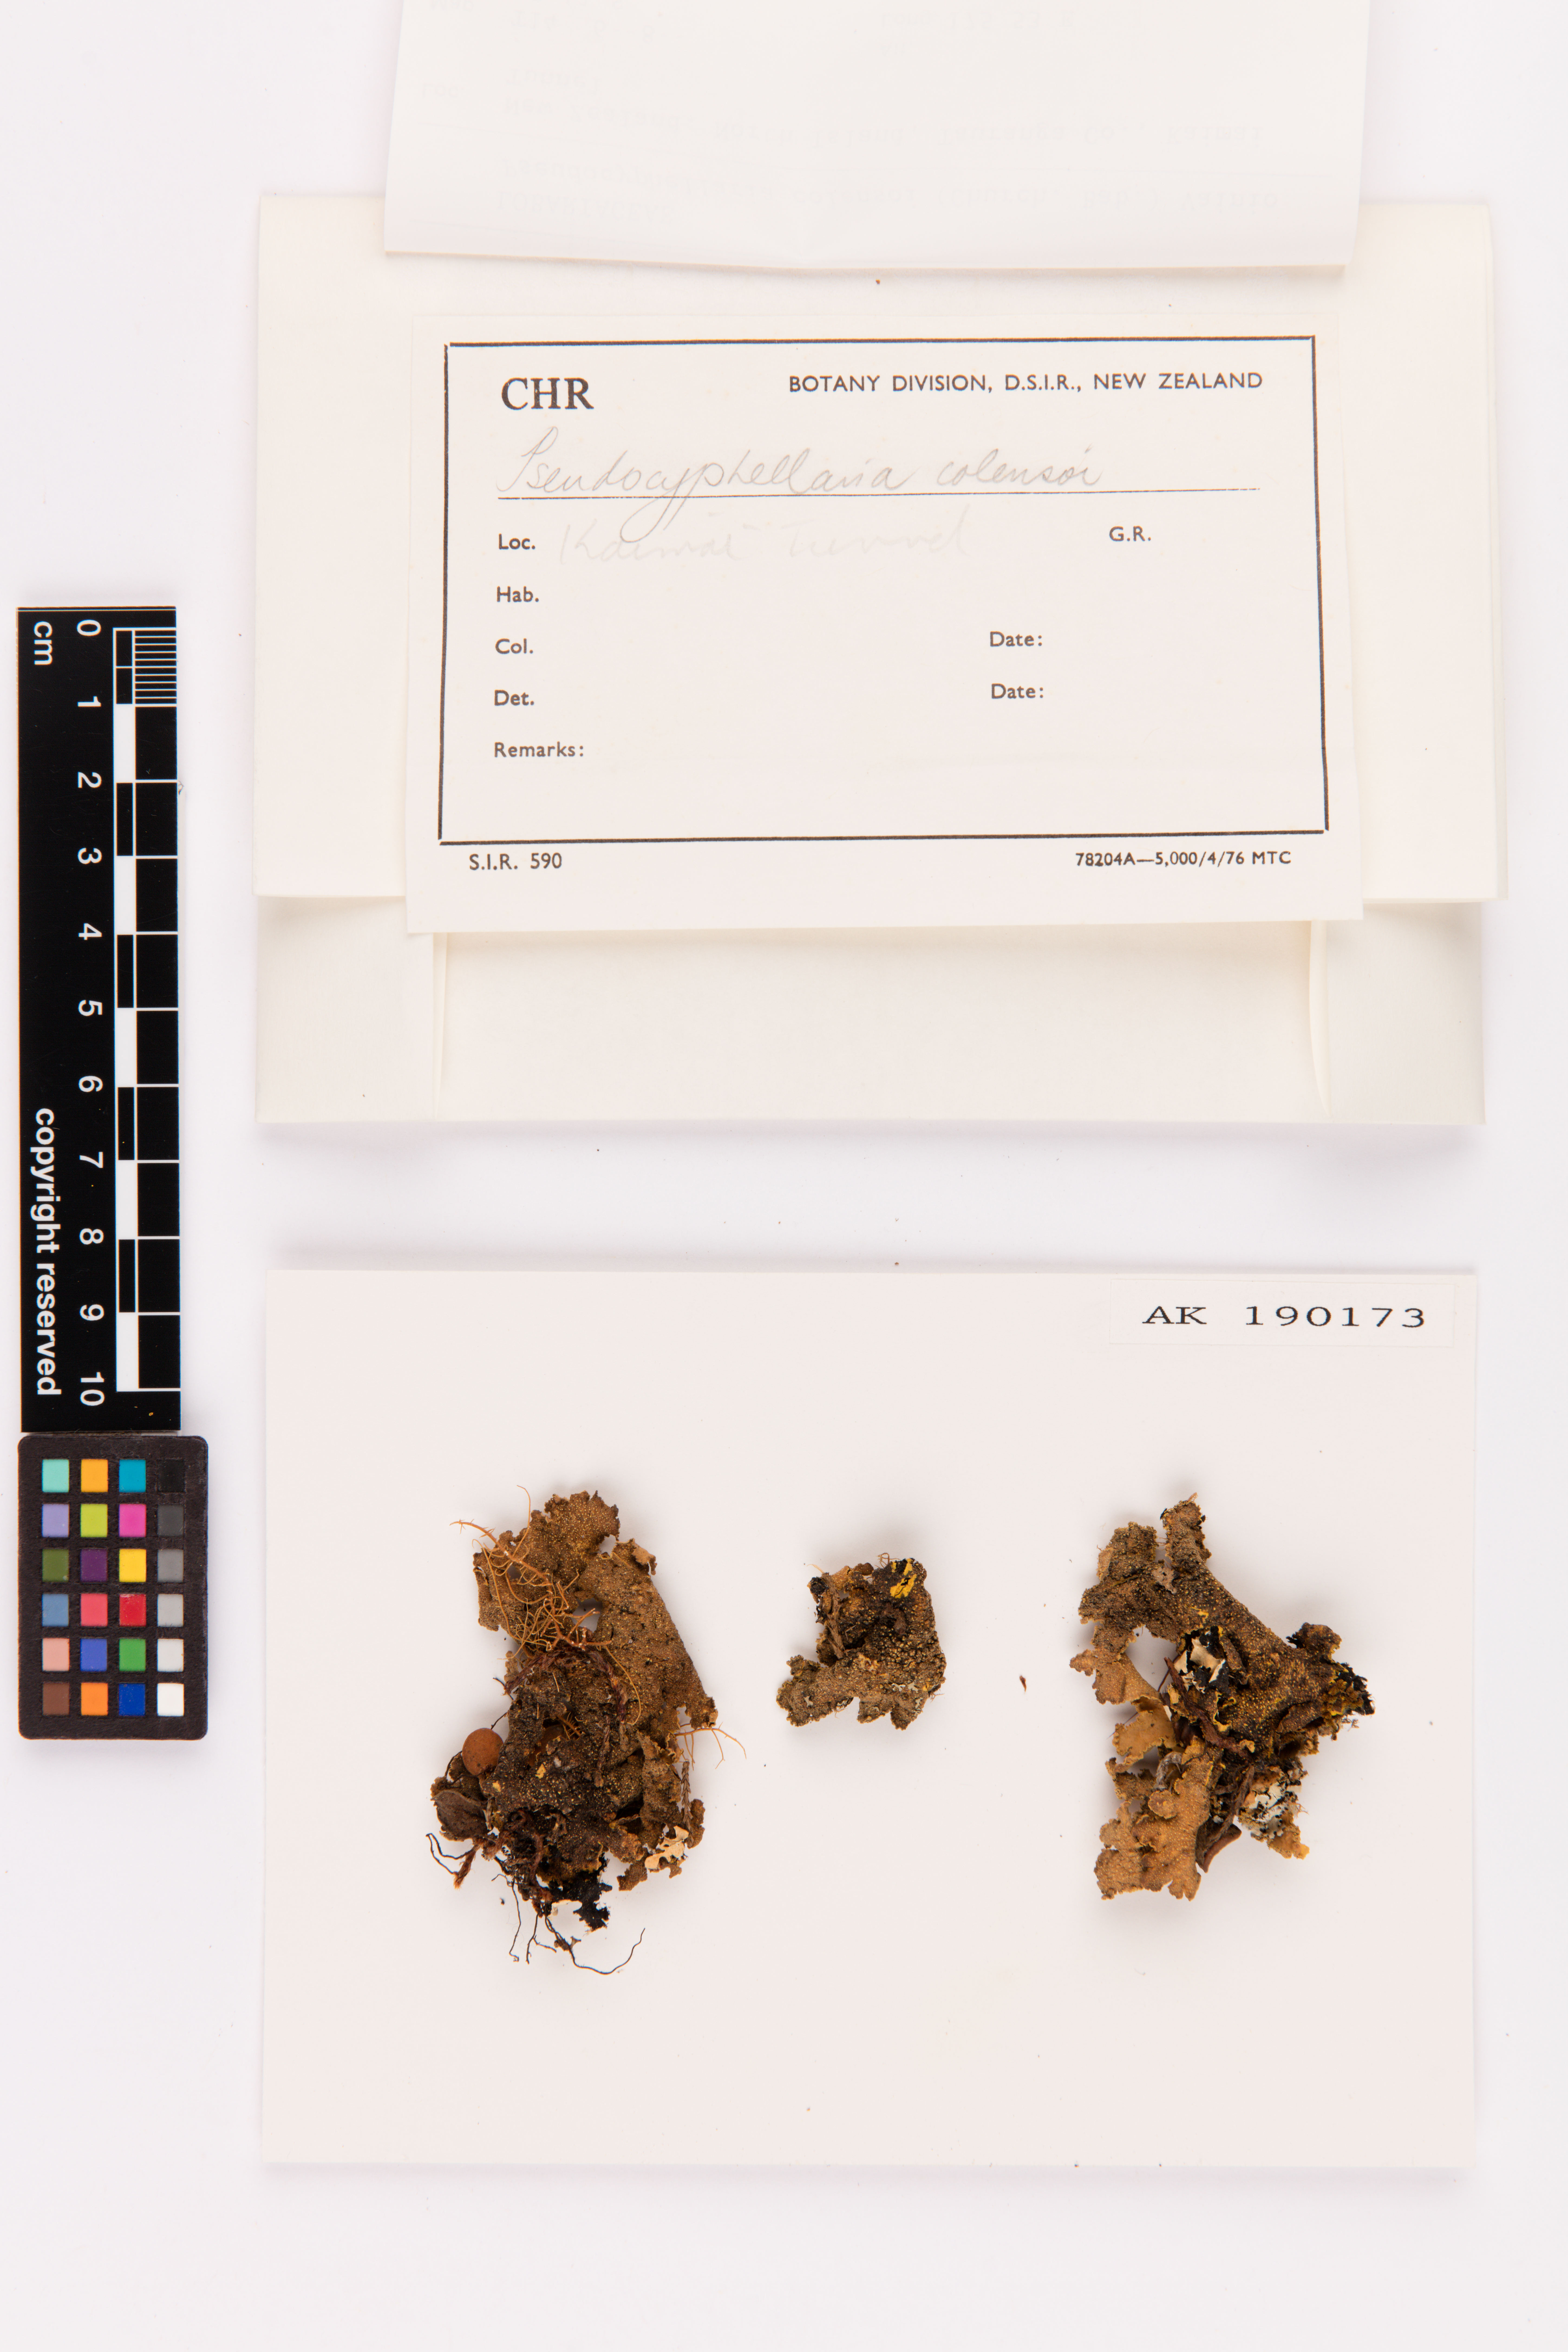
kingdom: Fungi
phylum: Ascomycota
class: Lecanoromycetes
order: Peltigerales
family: Lobariaceae
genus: Yarrumia
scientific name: Yarrumia colensoi
